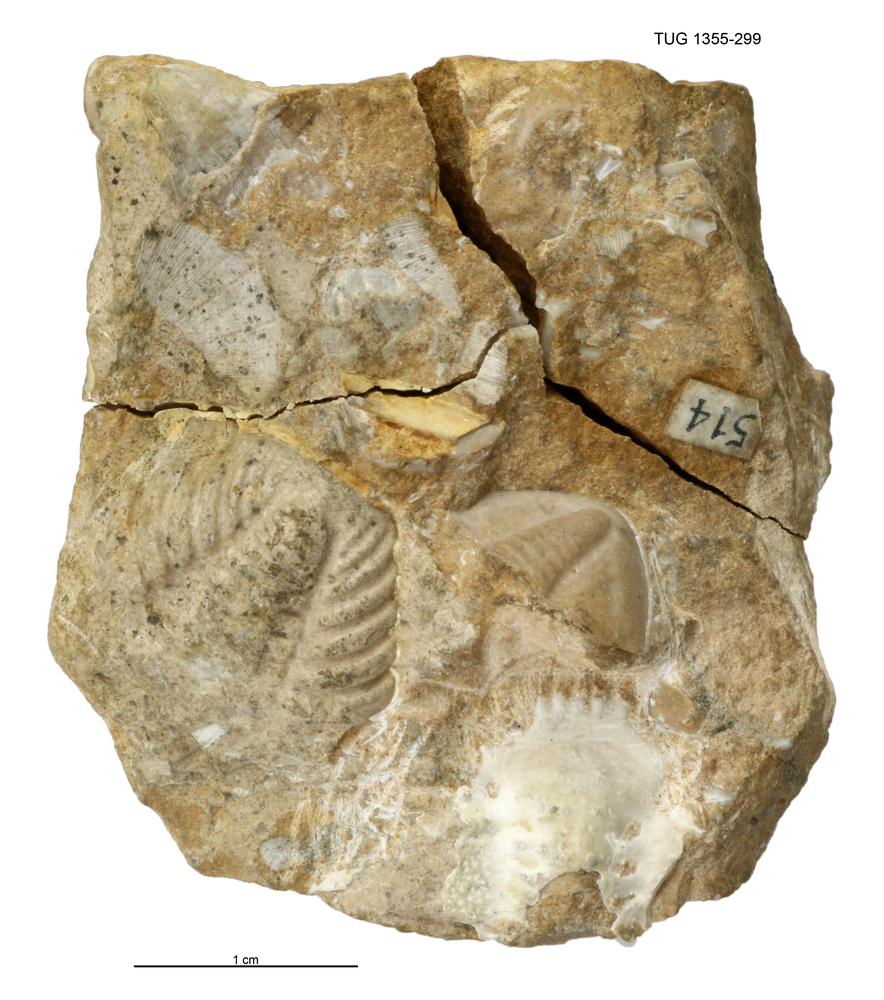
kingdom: Animalia
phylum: Arthropoda
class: Trilobita
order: Phacopida
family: Hammatocnemidae
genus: Cybelella
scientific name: Cybelella
